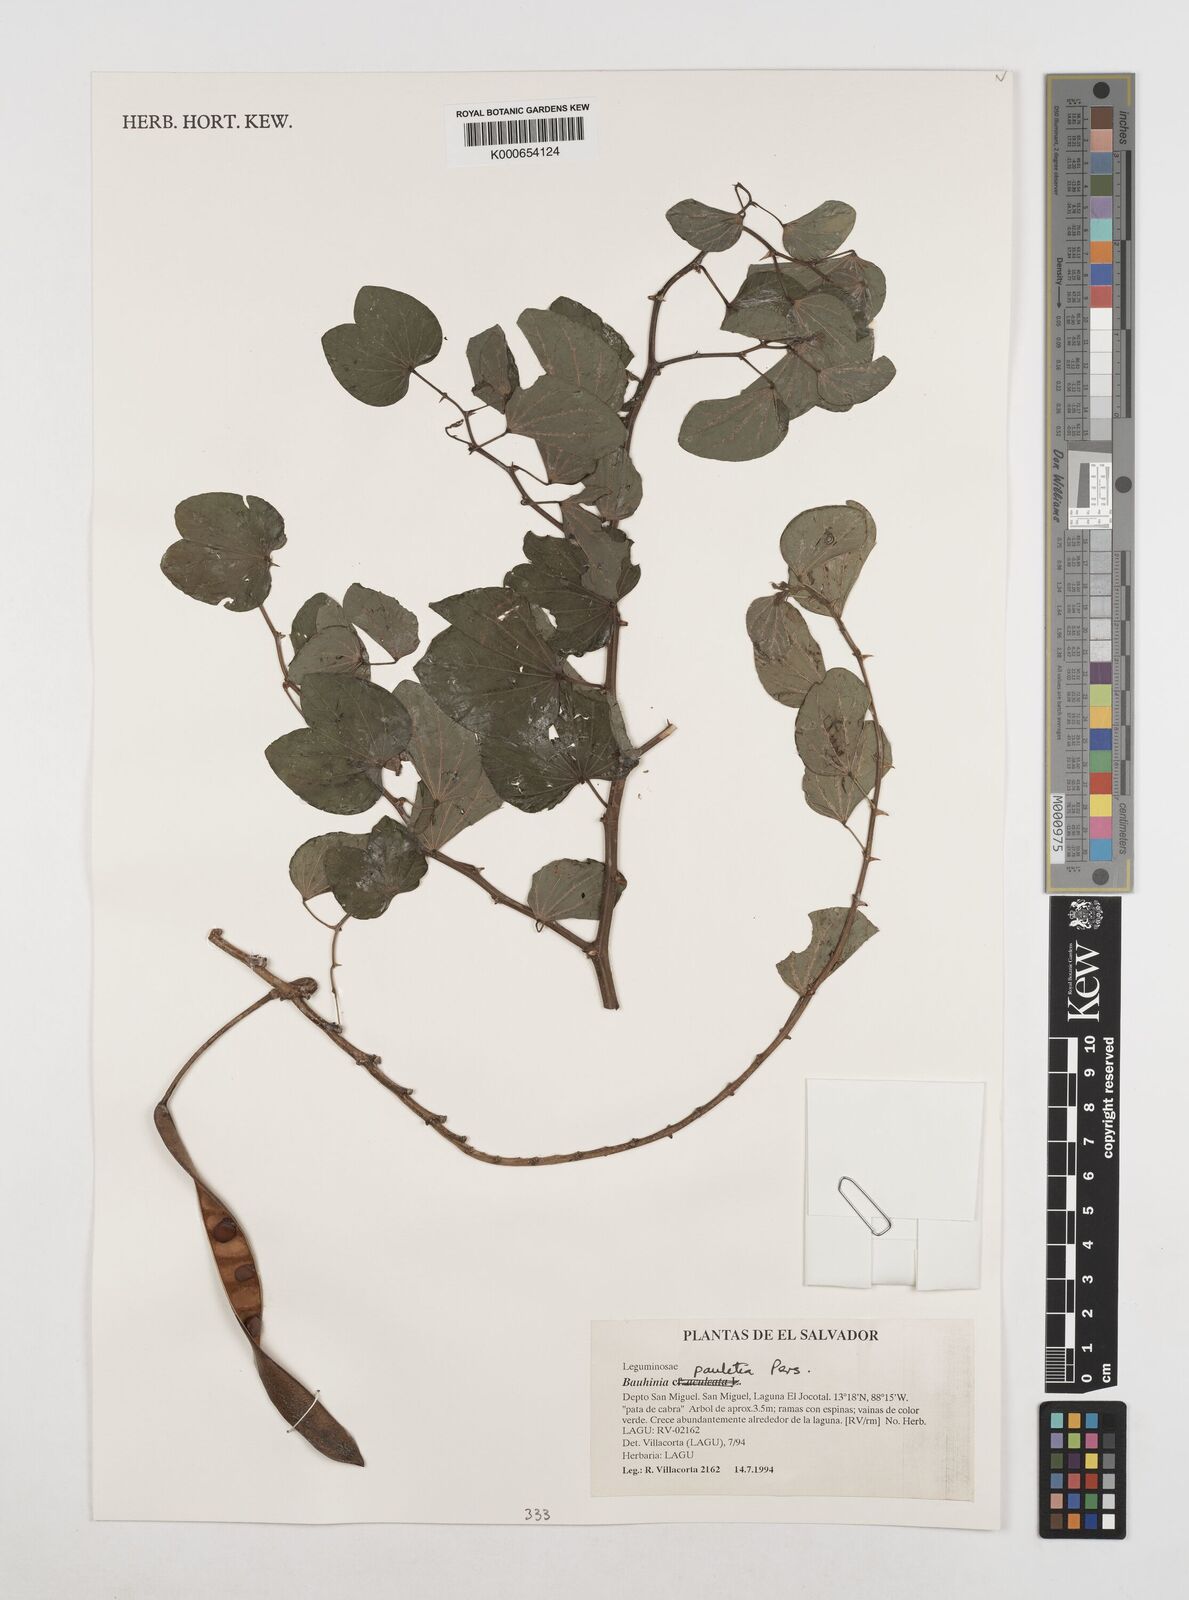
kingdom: Plantae
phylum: Tracheophyta
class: Magnoliopsida
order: Fabales
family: Fabaceae
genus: Bauhinia
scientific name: Bauhinia pauletia
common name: Railway-fence bauhinia
